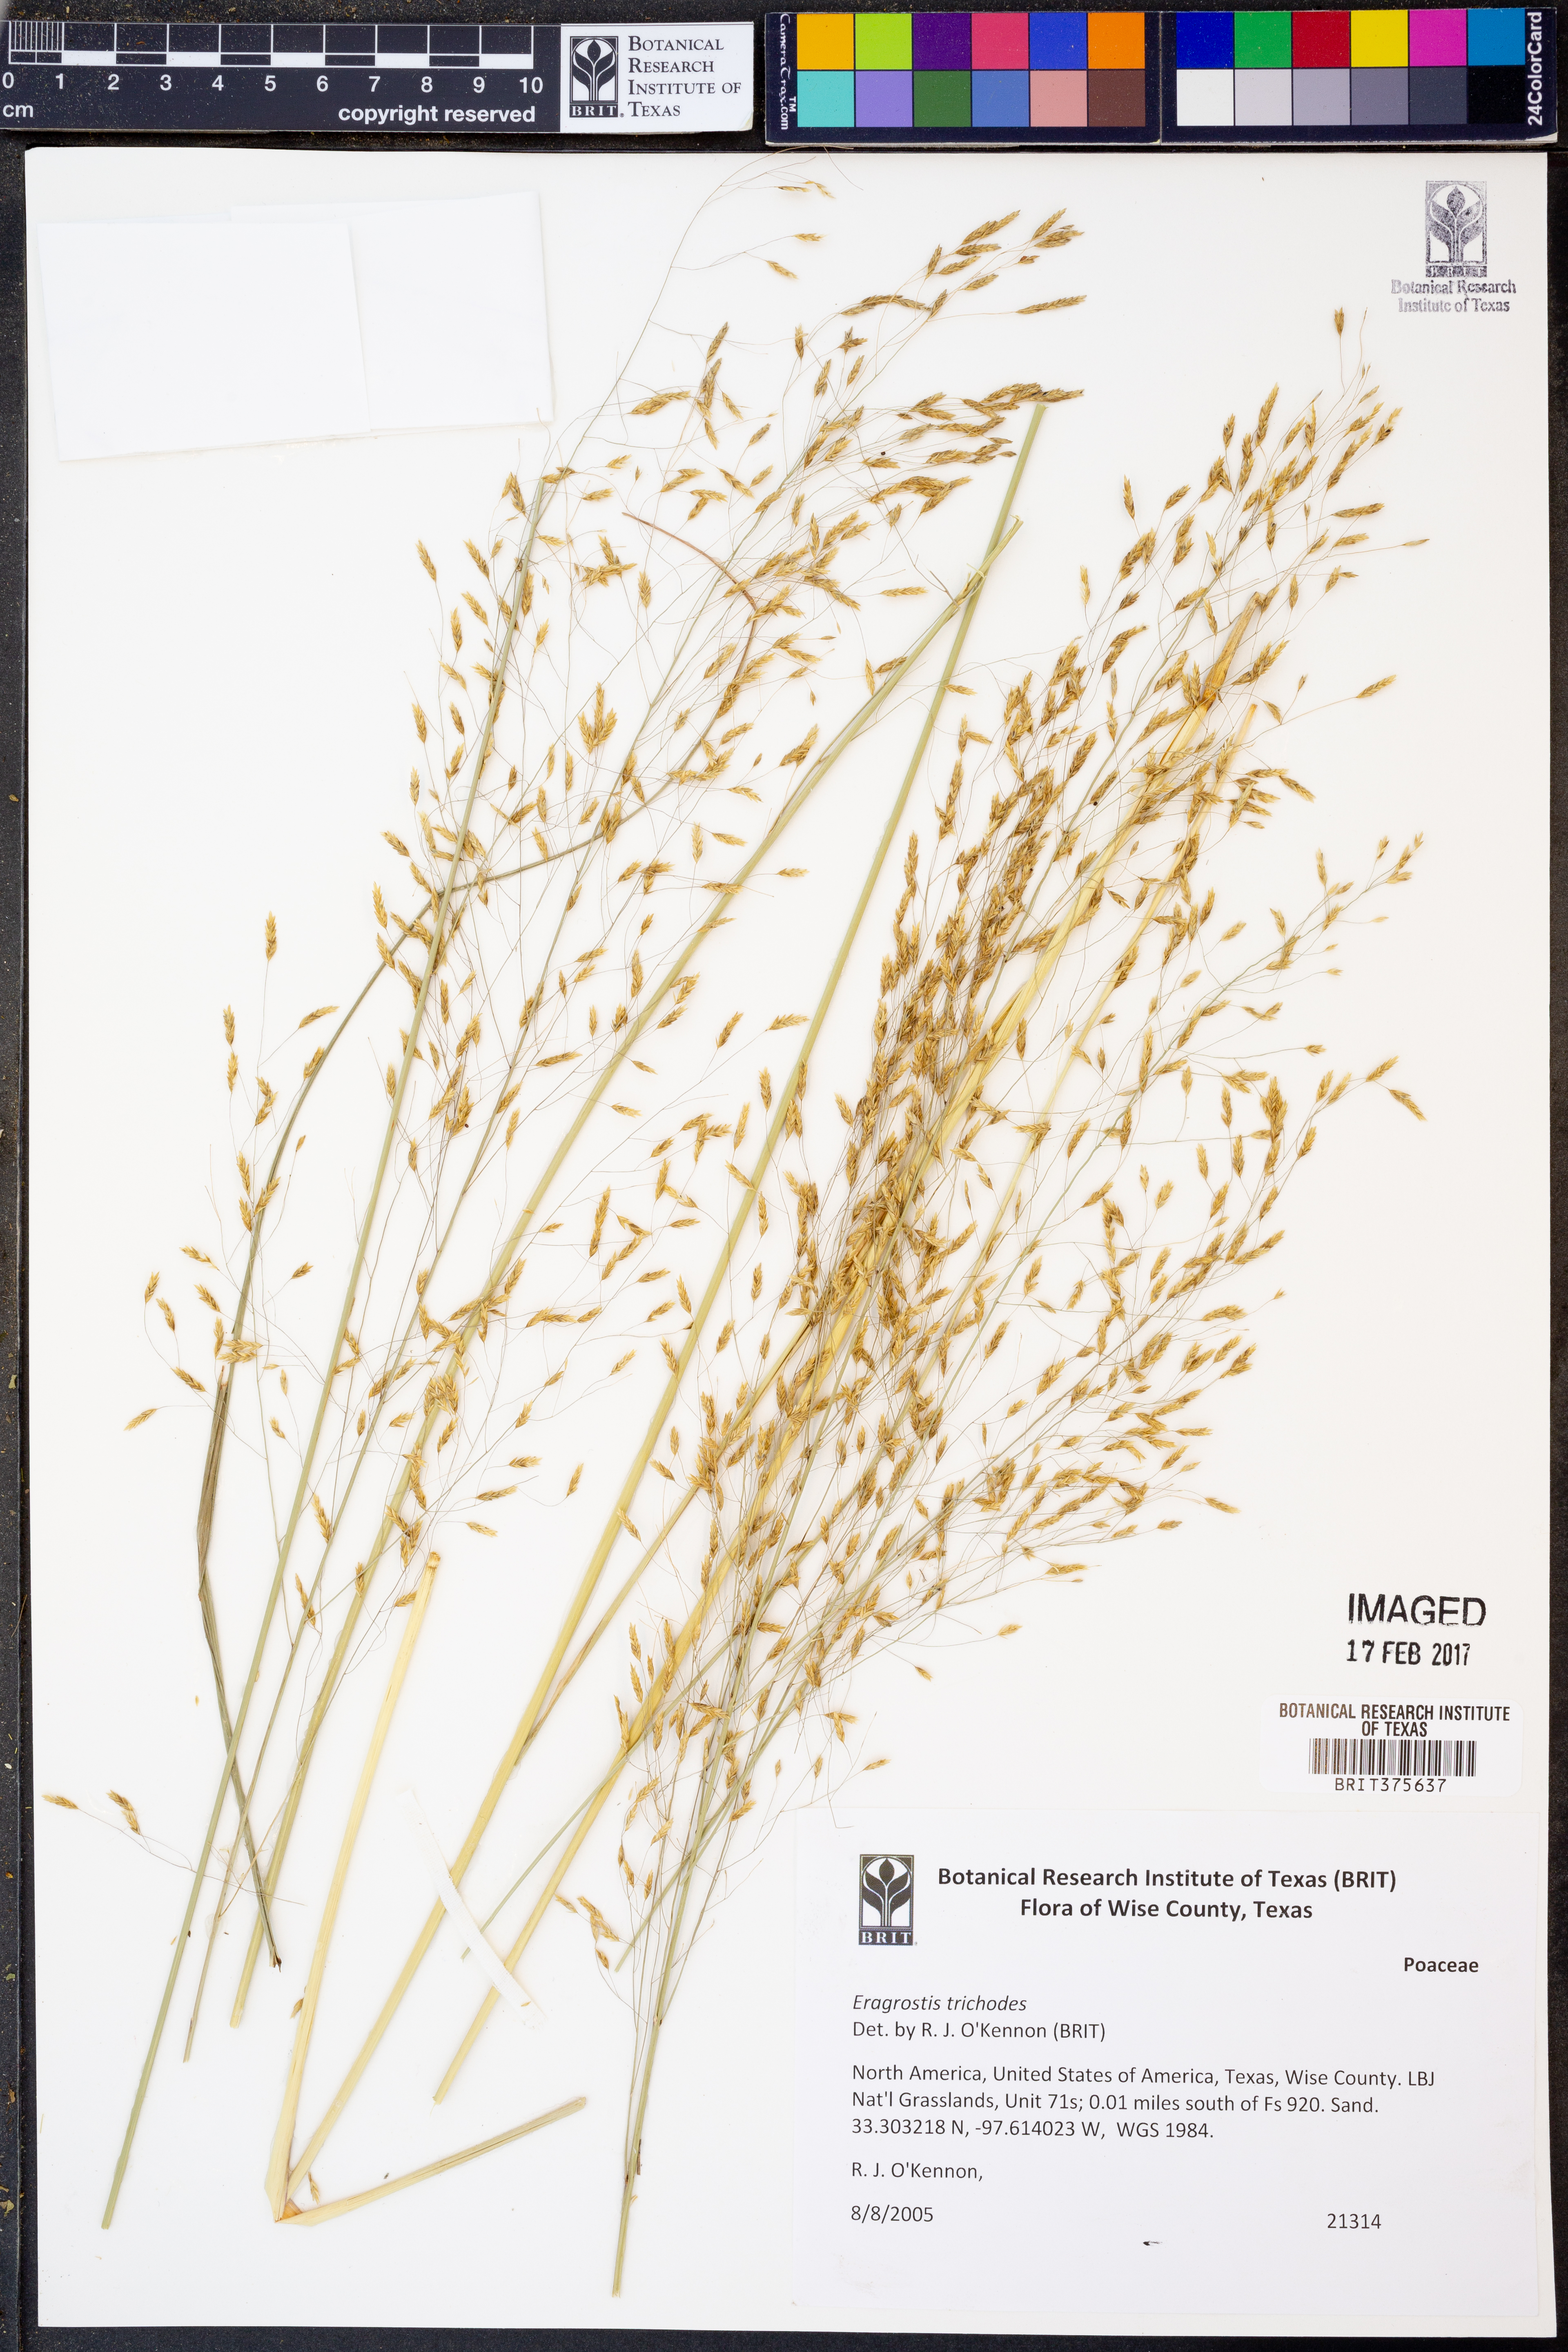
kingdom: Plantae
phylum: Tracheophyta
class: Liliopsida
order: Poales
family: Poaceae
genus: Eragrostis
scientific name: Eragrostis trichodes
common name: Sand love grass
